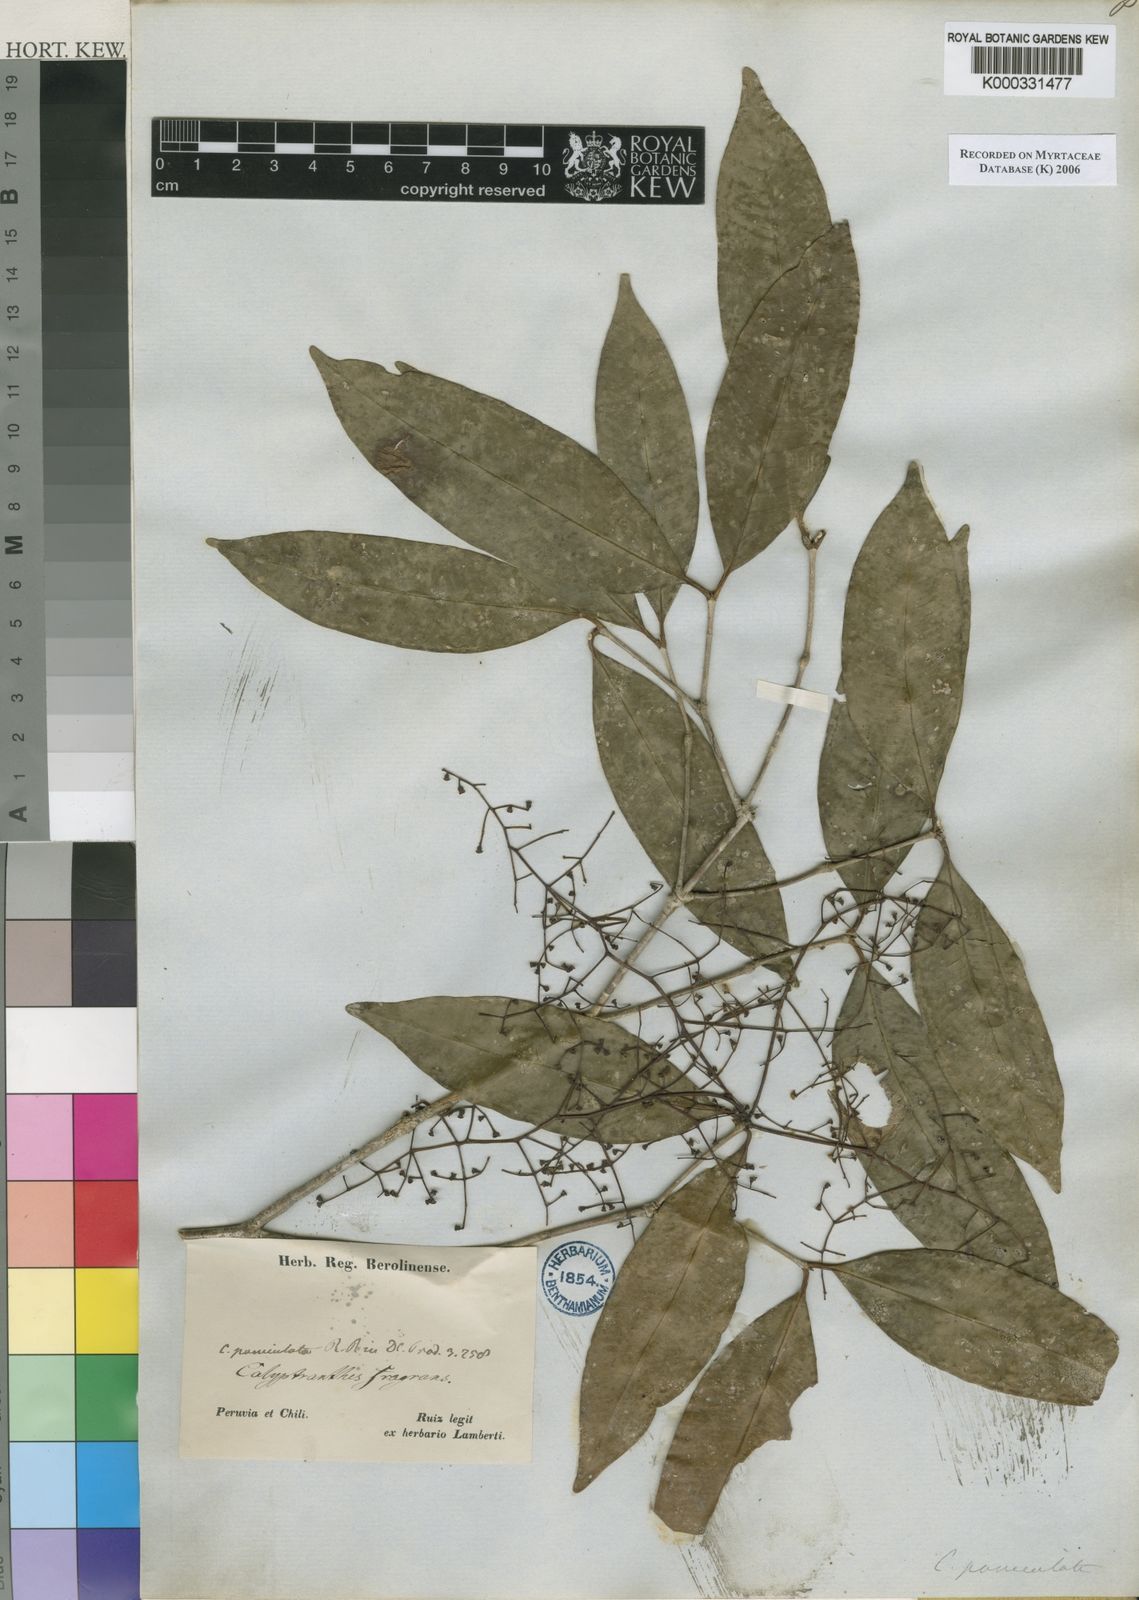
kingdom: Plantae
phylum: Tracheophyta
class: Magnoliopsida
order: Myrtales
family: Myrtaceae
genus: Calyptranthes
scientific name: Calyptranthes
